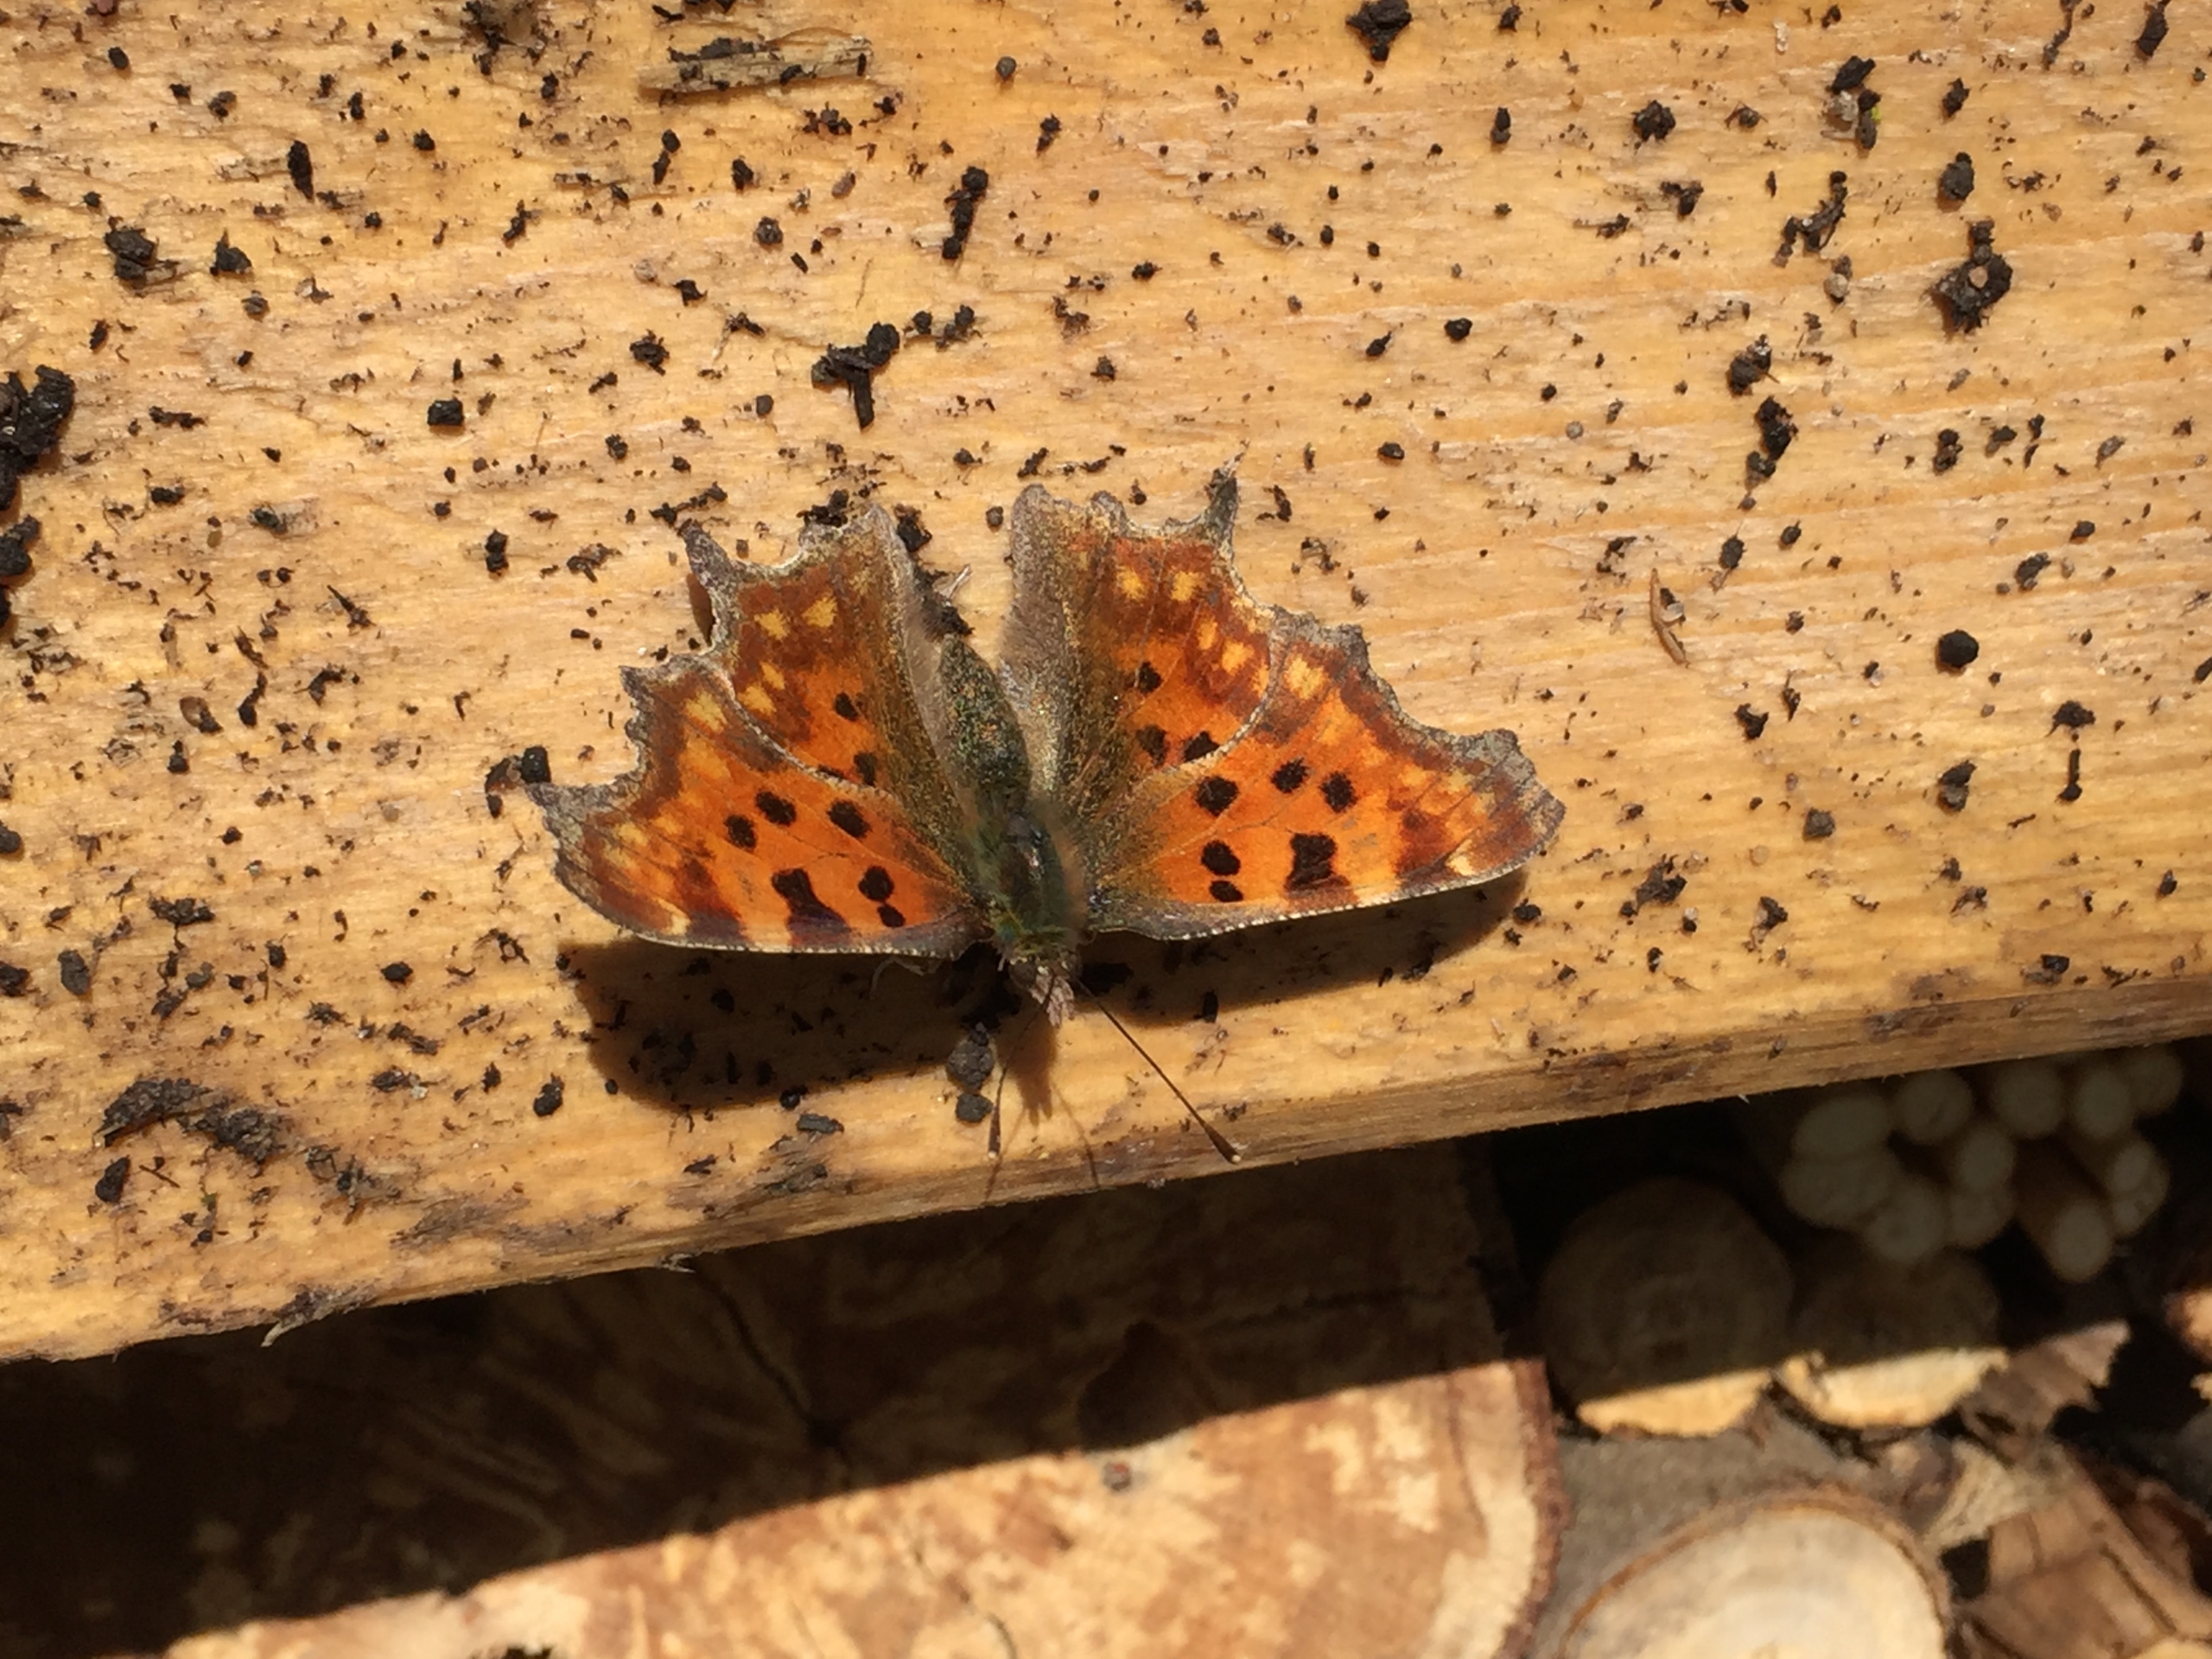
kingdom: Animalia
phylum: Arthropoda
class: Insecta
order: Lepidoptera
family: Nymphalidae
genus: Polygonia
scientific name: Polygonia c-album
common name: Det hvide C
